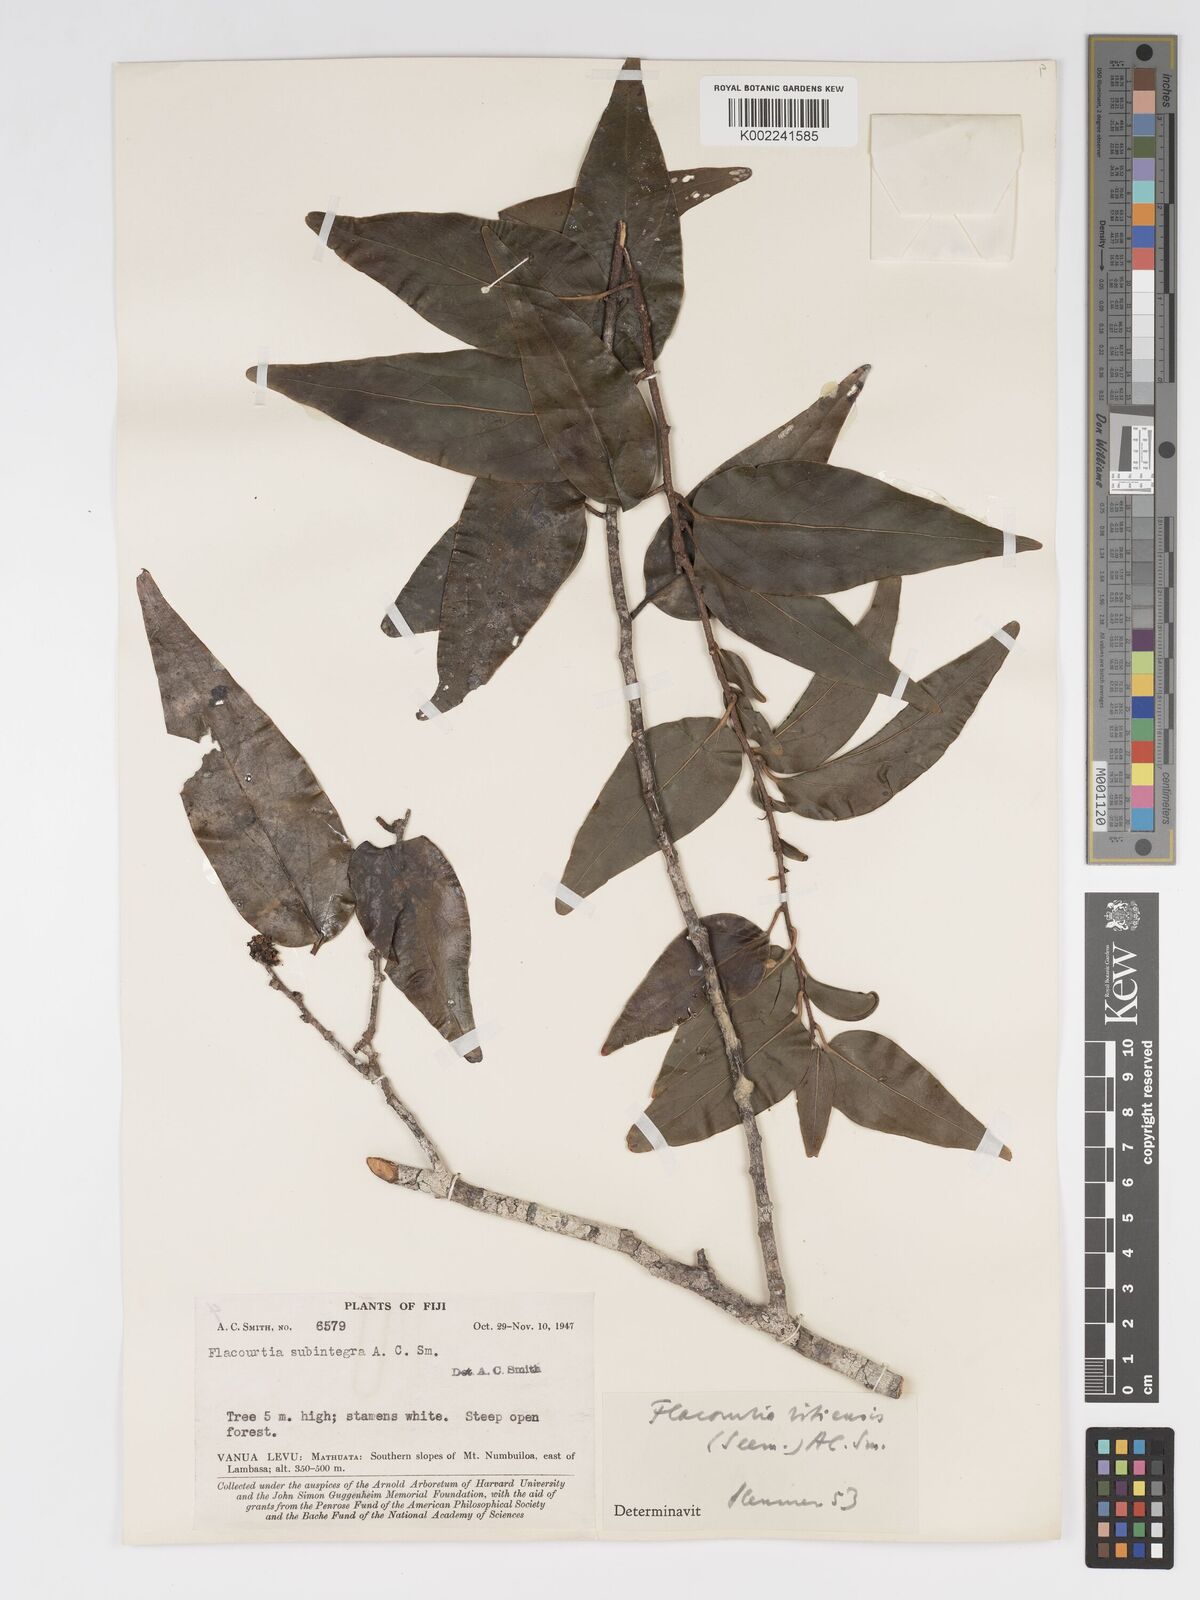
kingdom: Plantae
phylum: Tracheophyta
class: Magnoliopsida
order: Malpighiales
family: Salicaceae
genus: Flacourtia
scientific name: Flacourtia vitiensis
